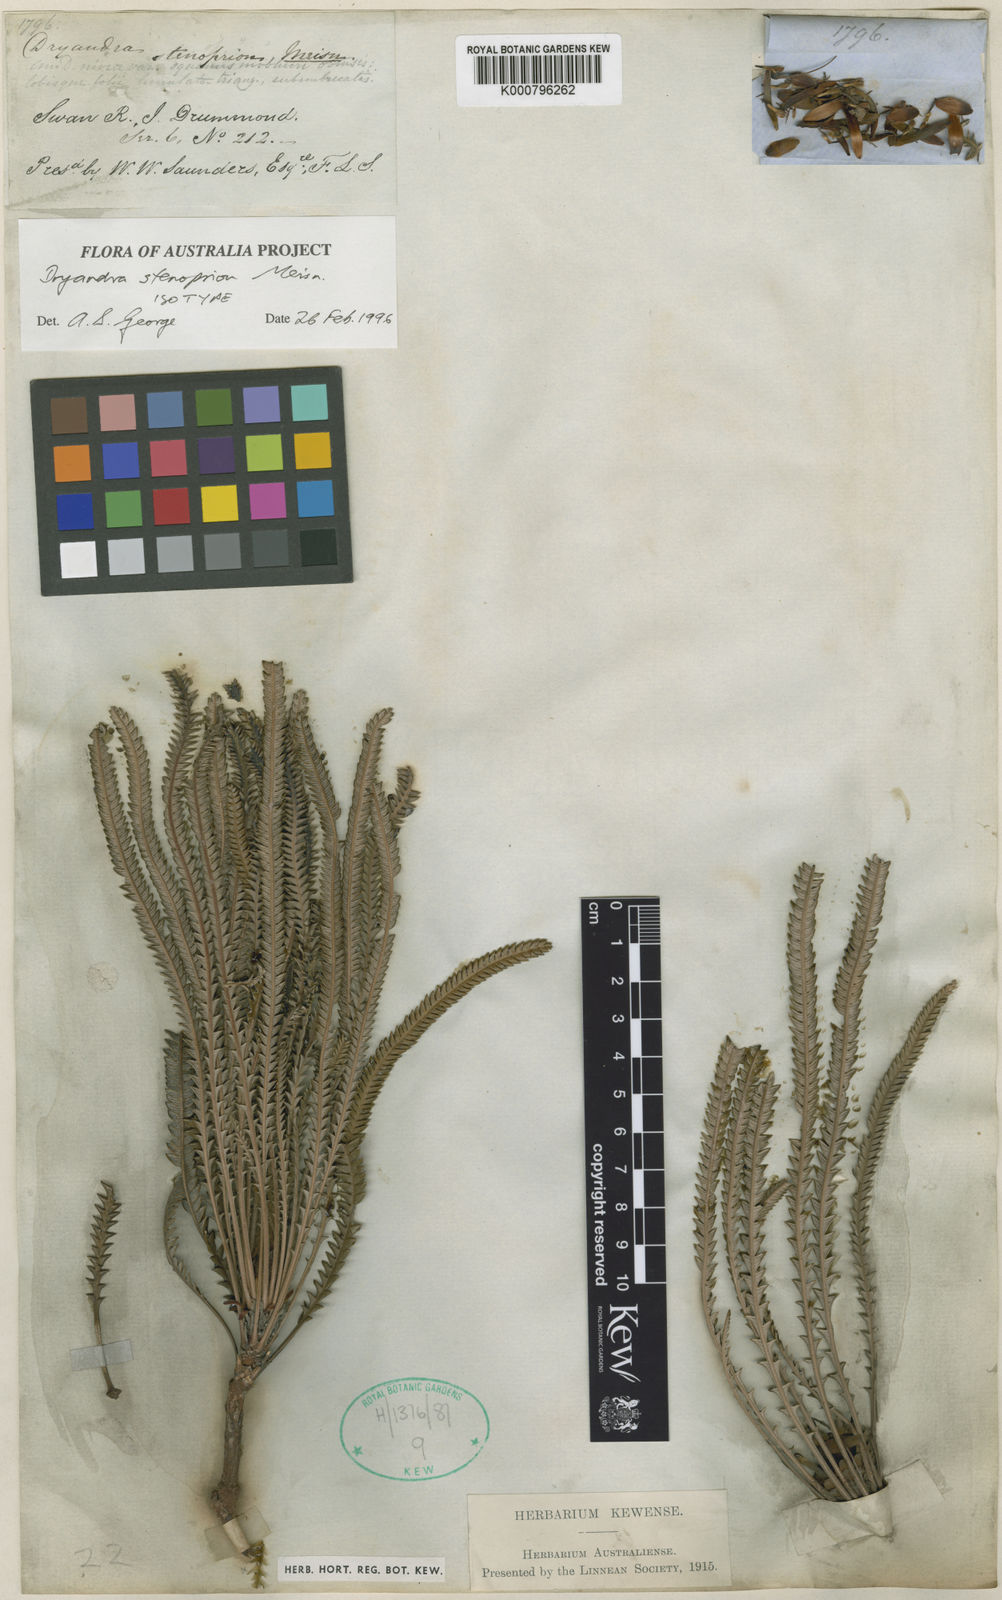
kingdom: Plantae
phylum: Tracheophyta
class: Magnoliopsida
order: Proteales
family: Proteaceae
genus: Banksia
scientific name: Banksia nivea
